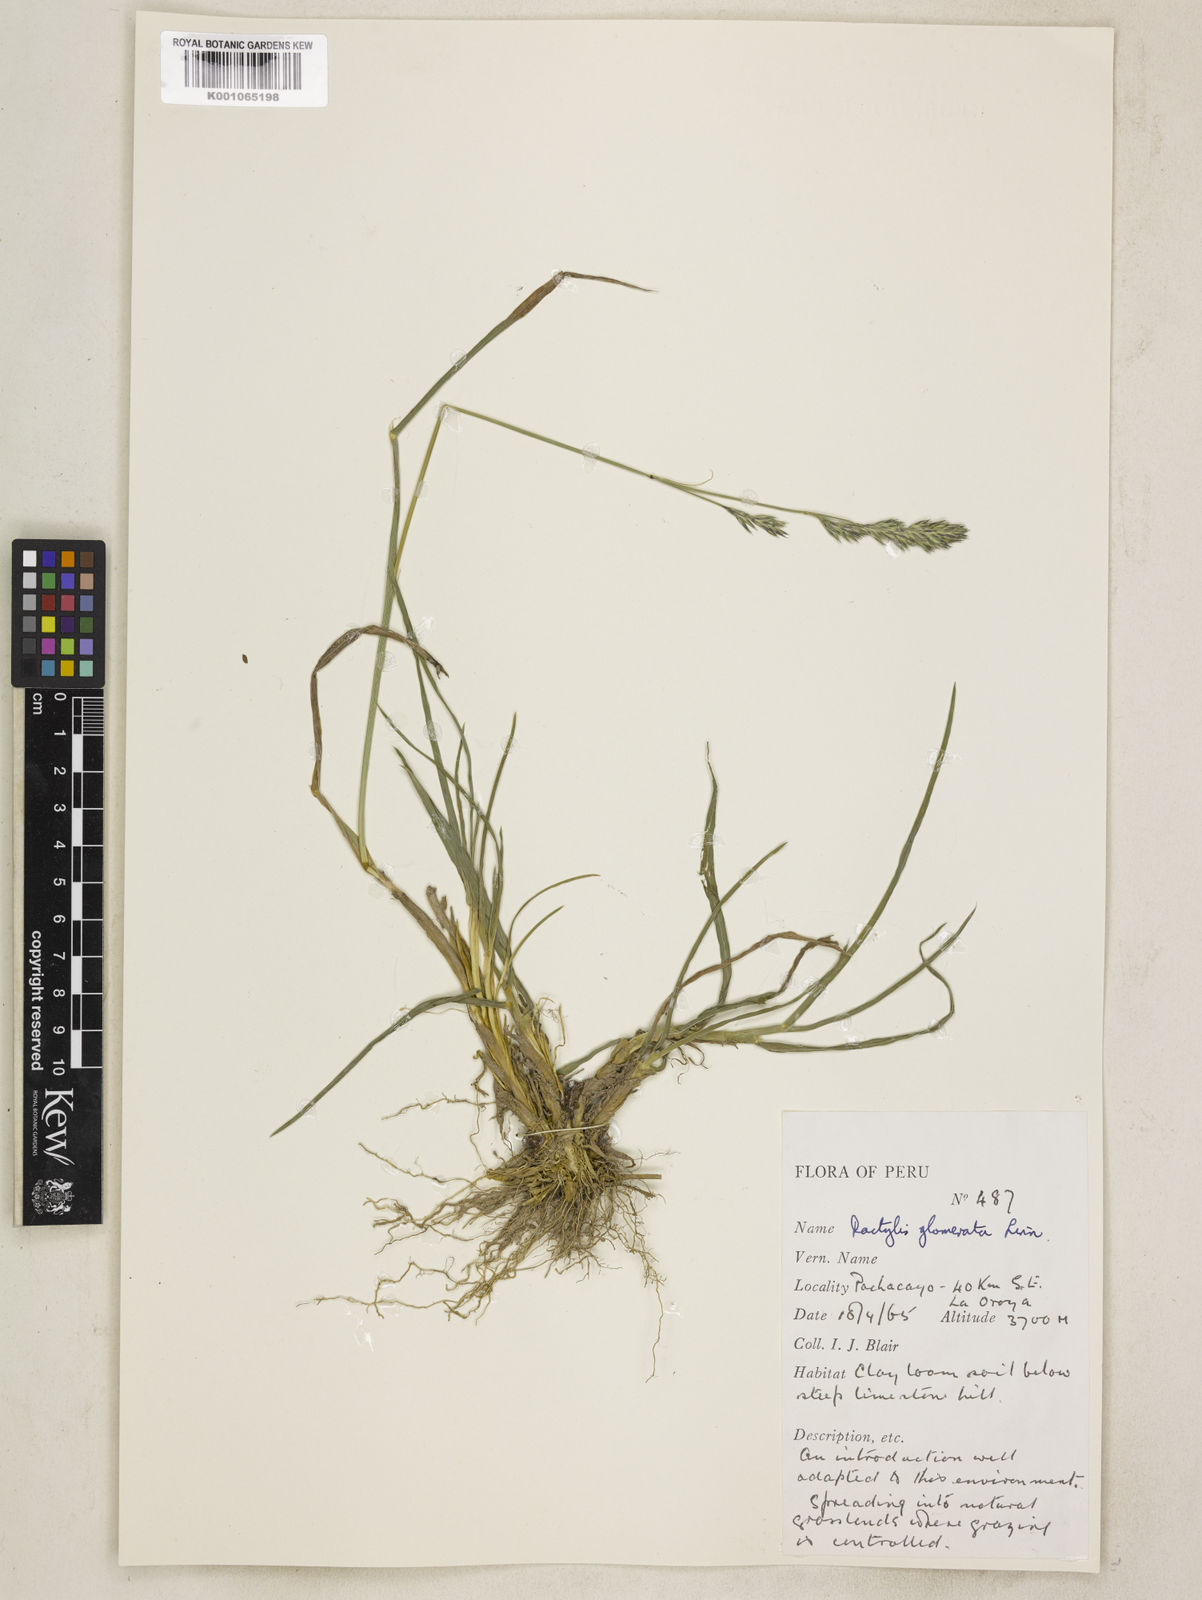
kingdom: Plantae
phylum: Tracheophyta
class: Liliopsida
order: Poales
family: Poaceae
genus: Dactylis
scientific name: Dactylis glomerata
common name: Orchardgrass
